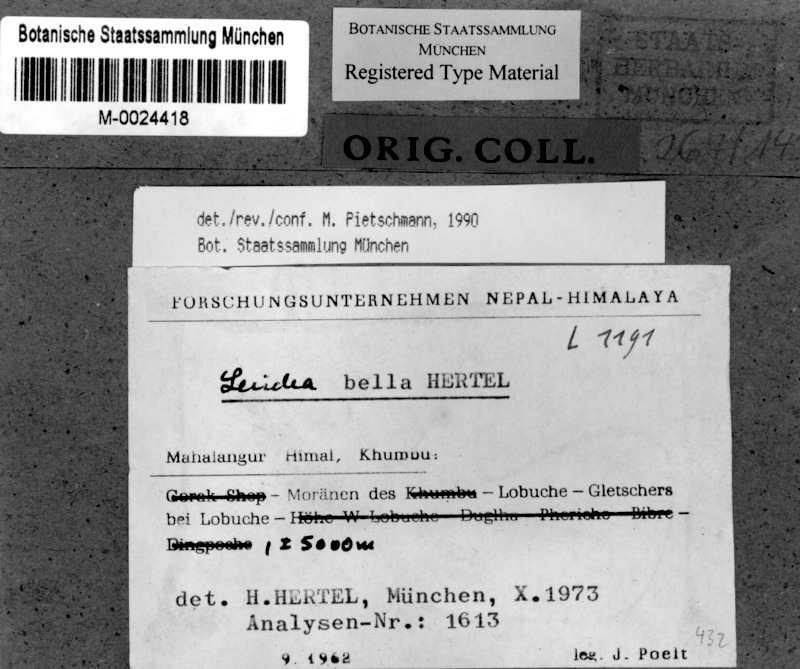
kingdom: Fungi
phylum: Ascomycota
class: Lecanoromycetes
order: Lecideales
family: Lecideaceae
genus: Lecidea
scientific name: Lecidea
